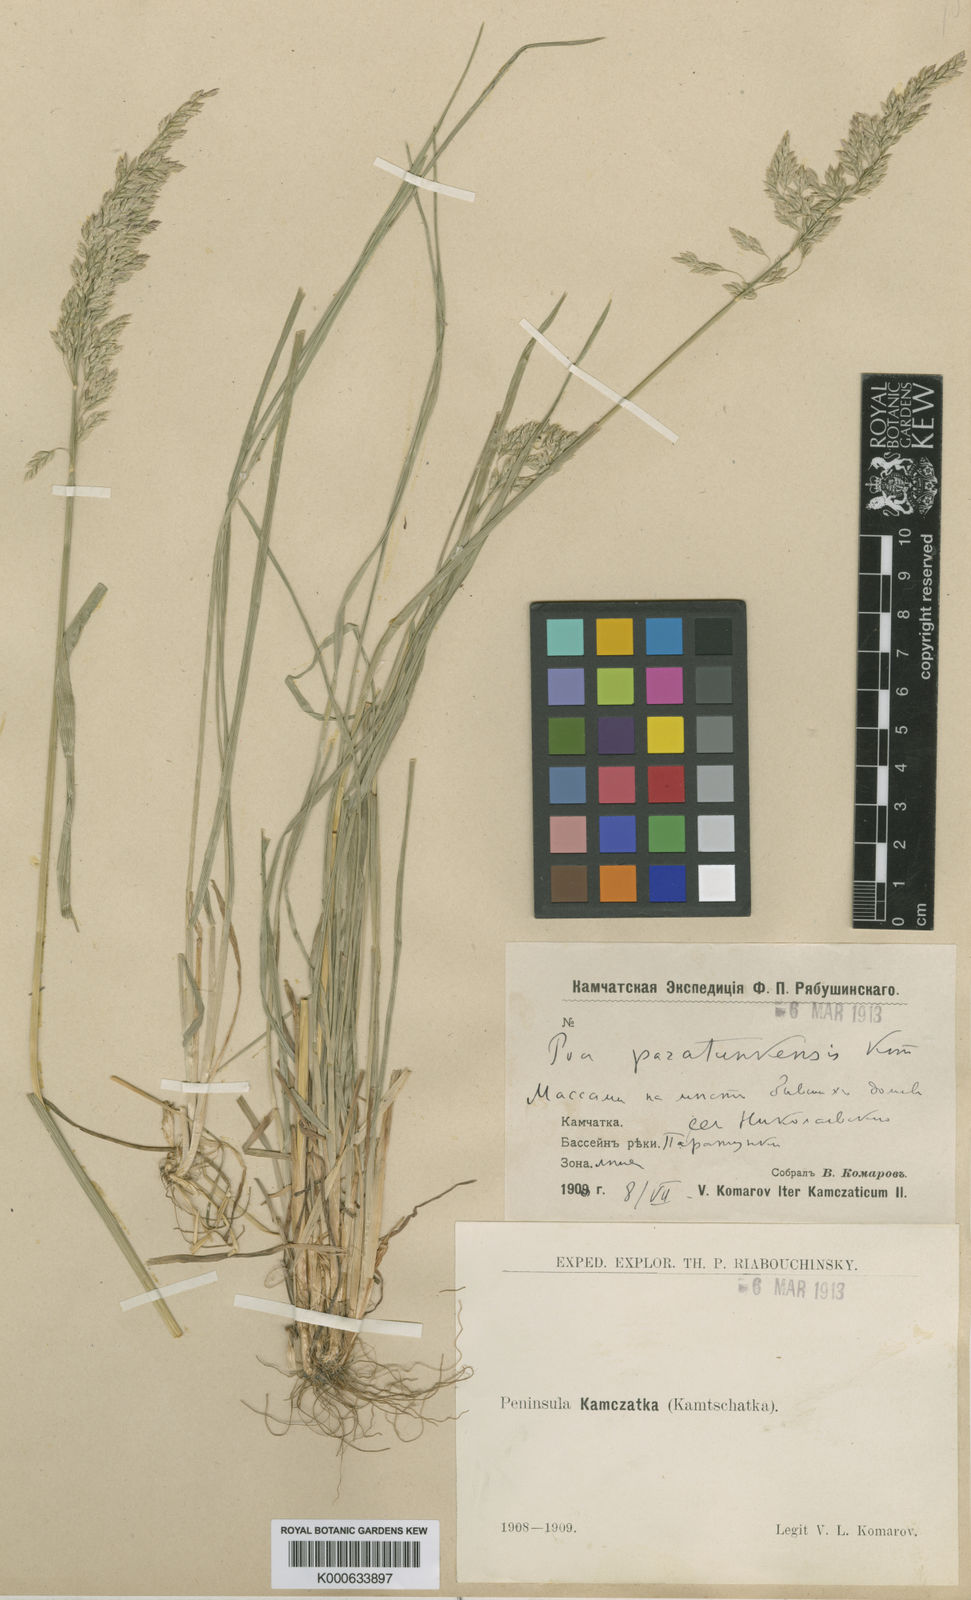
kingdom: Plantae
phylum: Tracheophyta
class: Liliopsida
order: Poales
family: Poaceae
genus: Poa
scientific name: Poa pratensis
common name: Kentucky bluegrass
